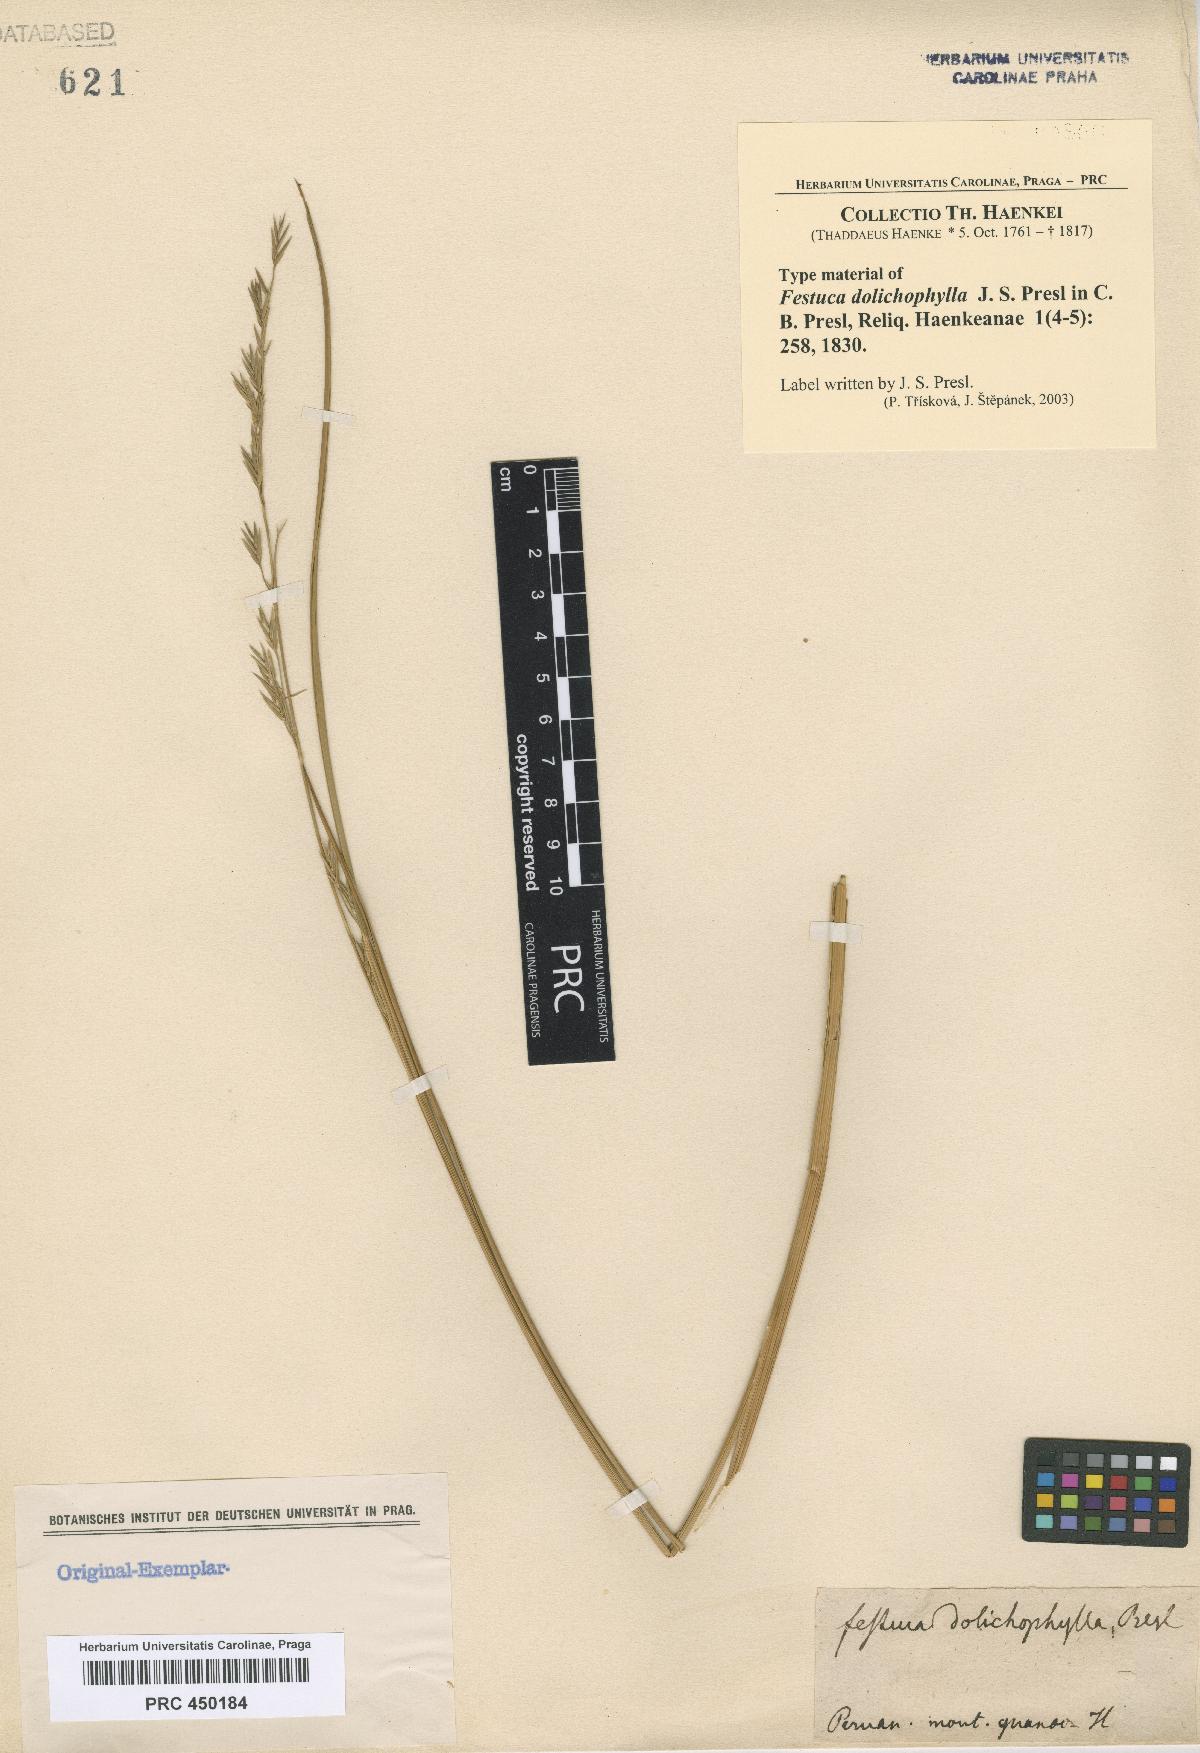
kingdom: Plantae
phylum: Tracheophyta
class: Liliopsida
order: Poales
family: Poaceae
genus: Festuca
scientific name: Festuca dolichophylla
